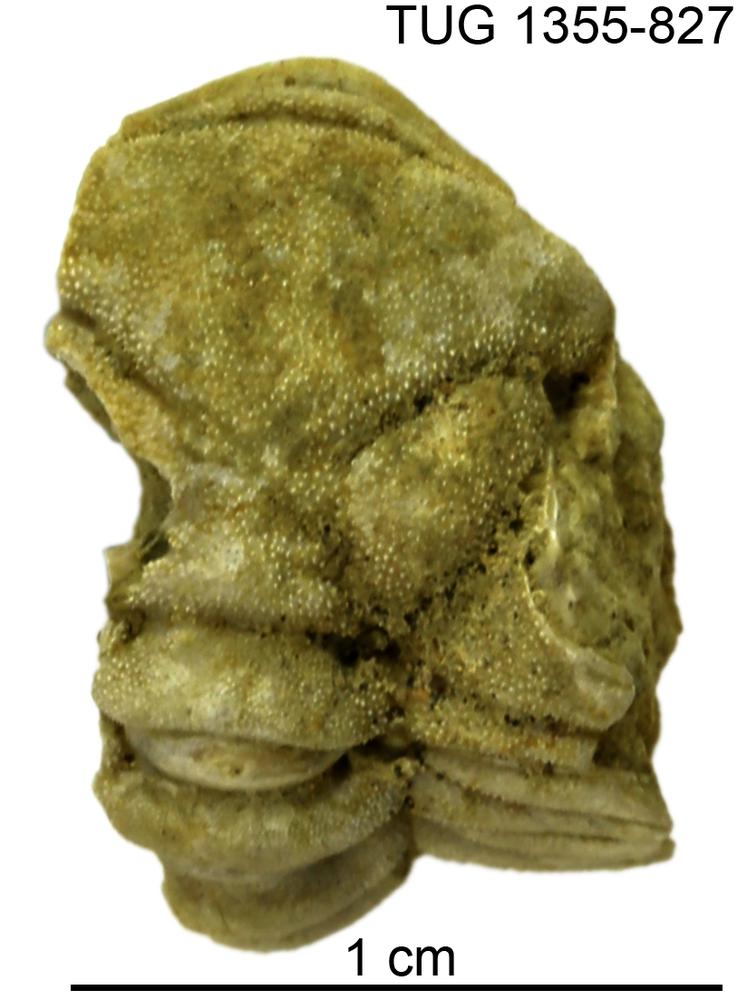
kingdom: Animalia
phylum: Arthropoda
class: Trilobita
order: Phacopida
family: Pterygometopidae
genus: Rollmops
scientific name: Rollmops
